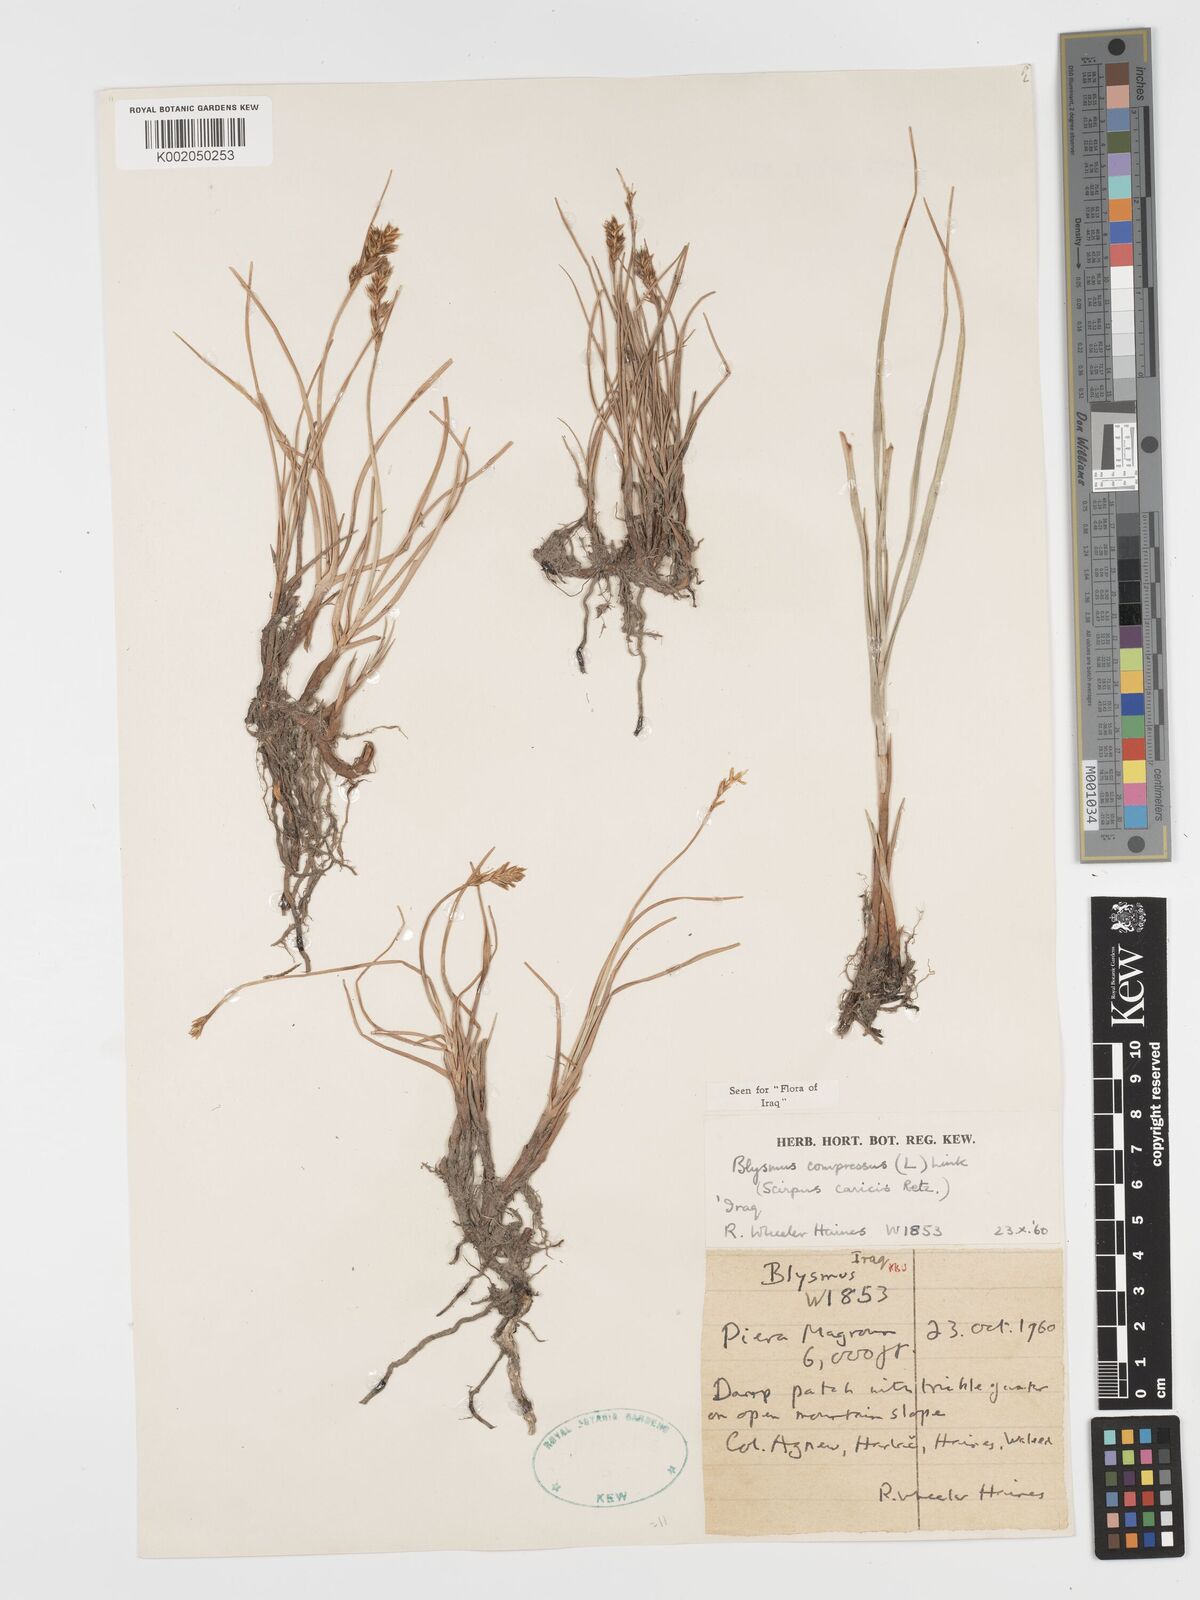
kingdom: Plantae
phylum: Tracheophyta
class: Liliopsida
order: Poales
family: Cyperaceae
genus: Blysmus
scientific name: Blysmus compressus
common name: Flat-sedge
